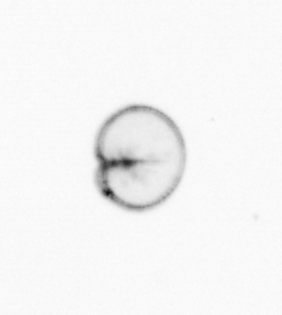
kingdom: Chromista
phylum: Myzozoa
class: Dinophyceae
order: Noctilucales
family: Noctilucaceae
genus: Noctiluca
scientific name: Noctiluca scintillans
